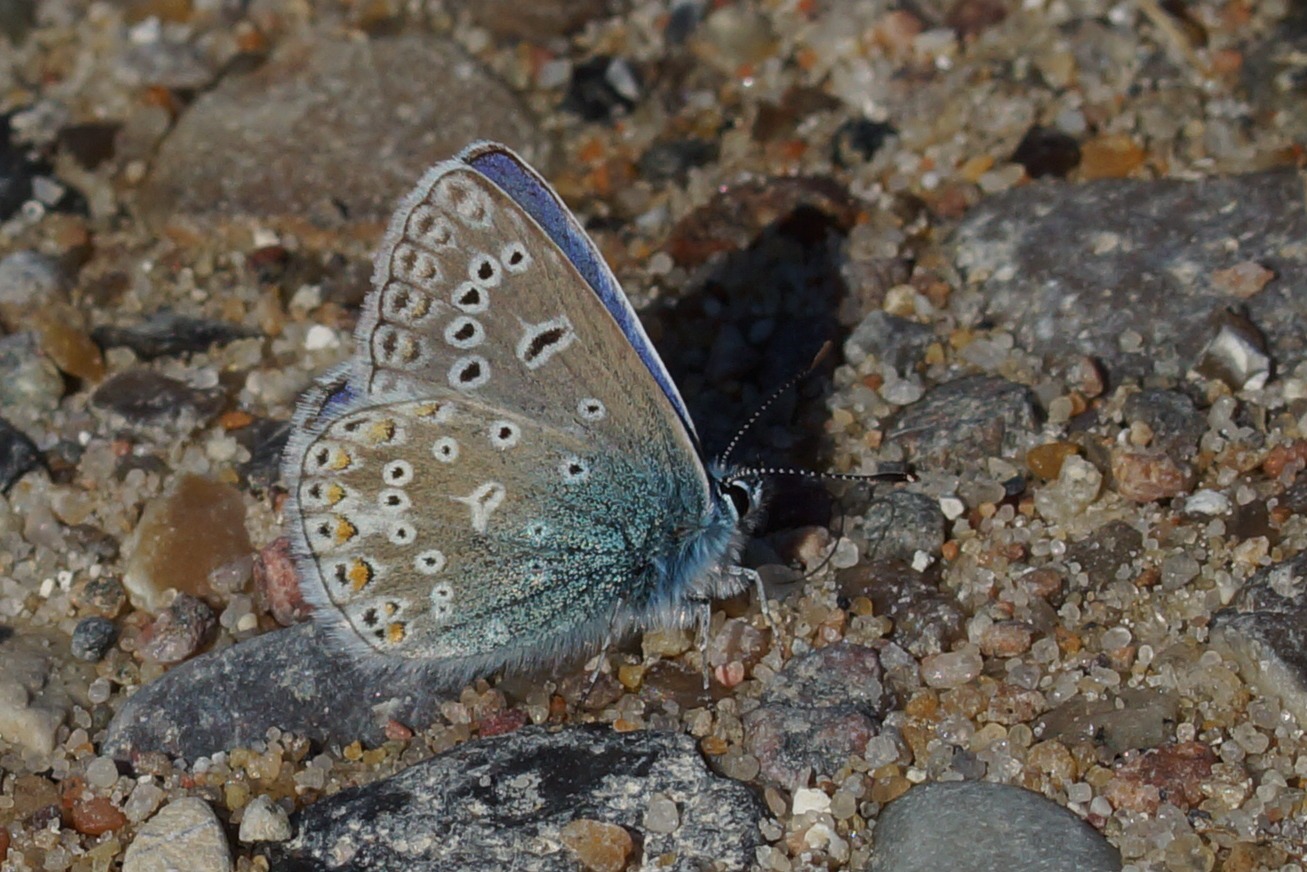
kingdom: Animalia
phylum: Arthropoda
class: Insecta
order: Lepidoptera
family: Lycaenidae
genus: Polyommatus
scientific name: Polyommatus icarus
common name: Almindelig blåfugl
